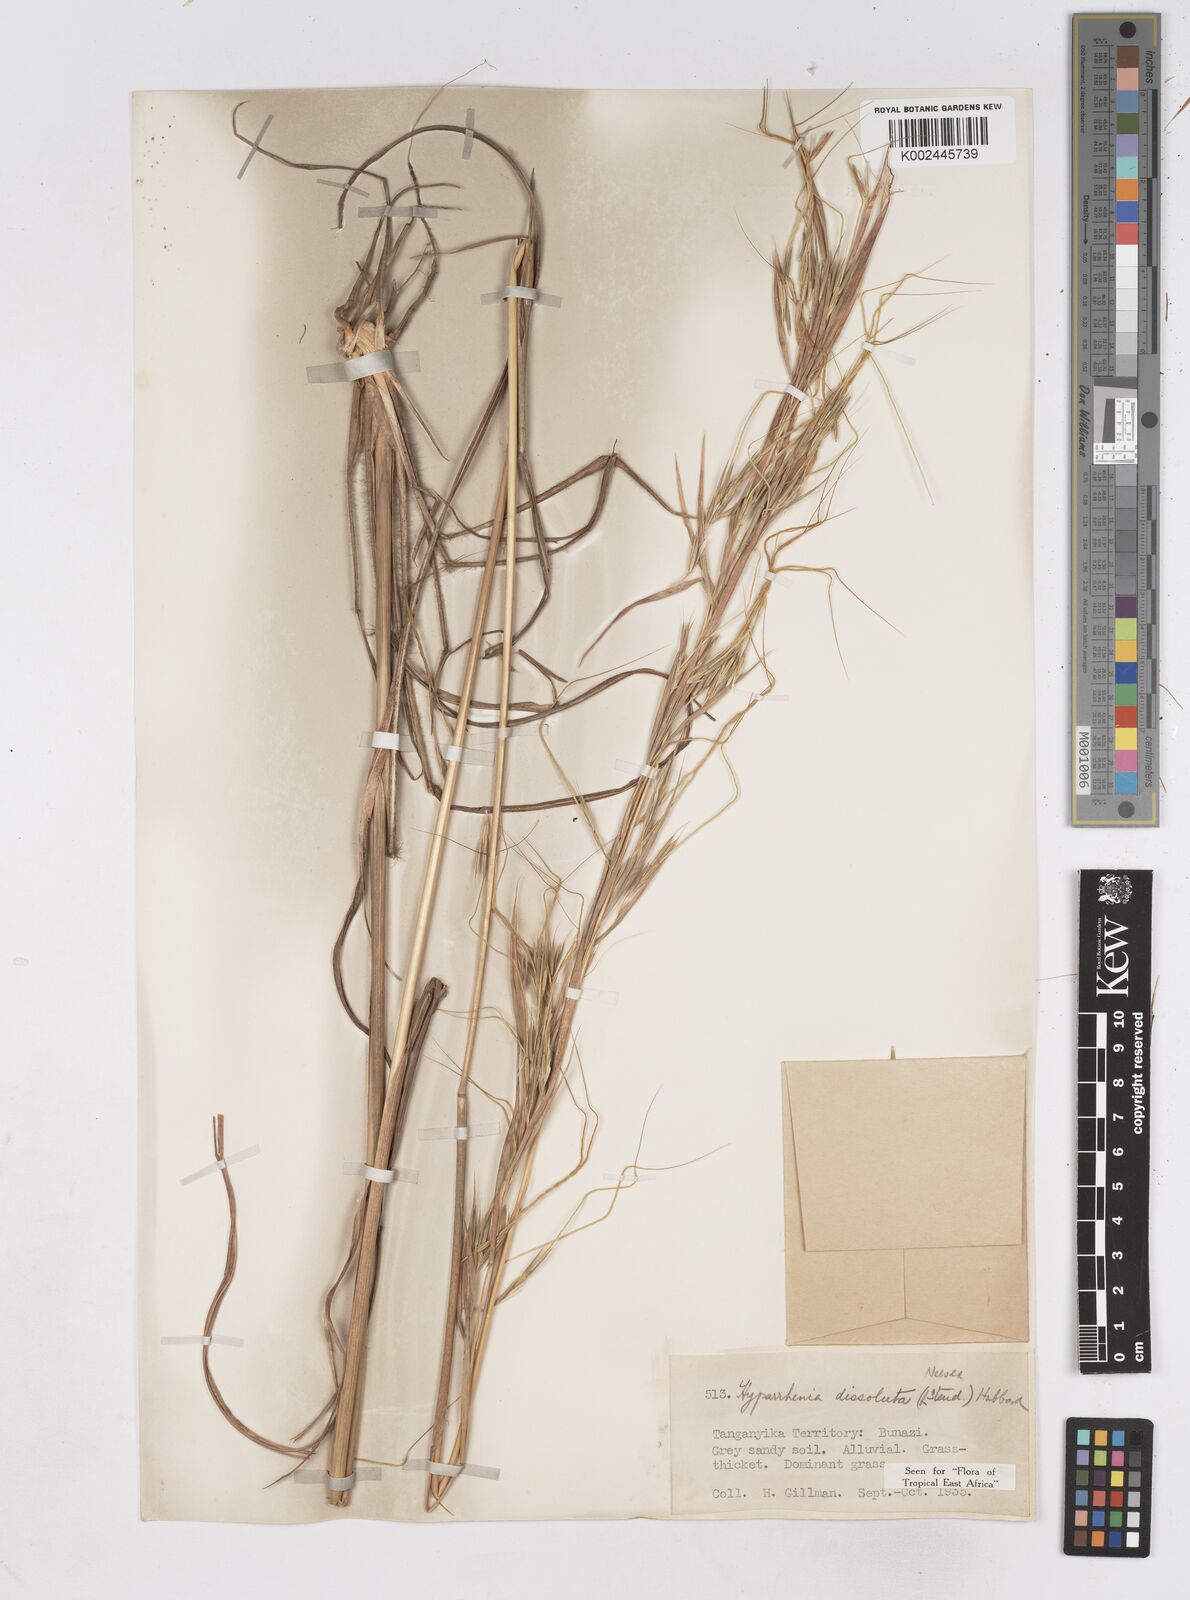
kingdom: Plantae
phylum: Tracheophyta
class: Liliopsida
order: Poales
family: Poaceae
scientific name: Poaceae
